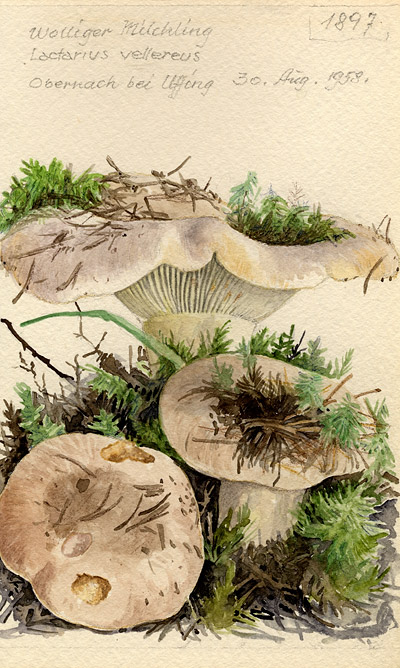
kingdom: Fungi
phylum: Basidiomycota
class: Agaricomycetes
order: Russulales
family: Russulaceae
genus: Lactifluus
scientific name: Lactifluus vellereus
